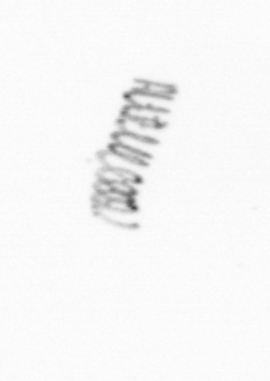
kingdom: Chromista
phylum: Ochrophyta
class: Bacillariophyceae
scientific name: Bacillariophyceae
